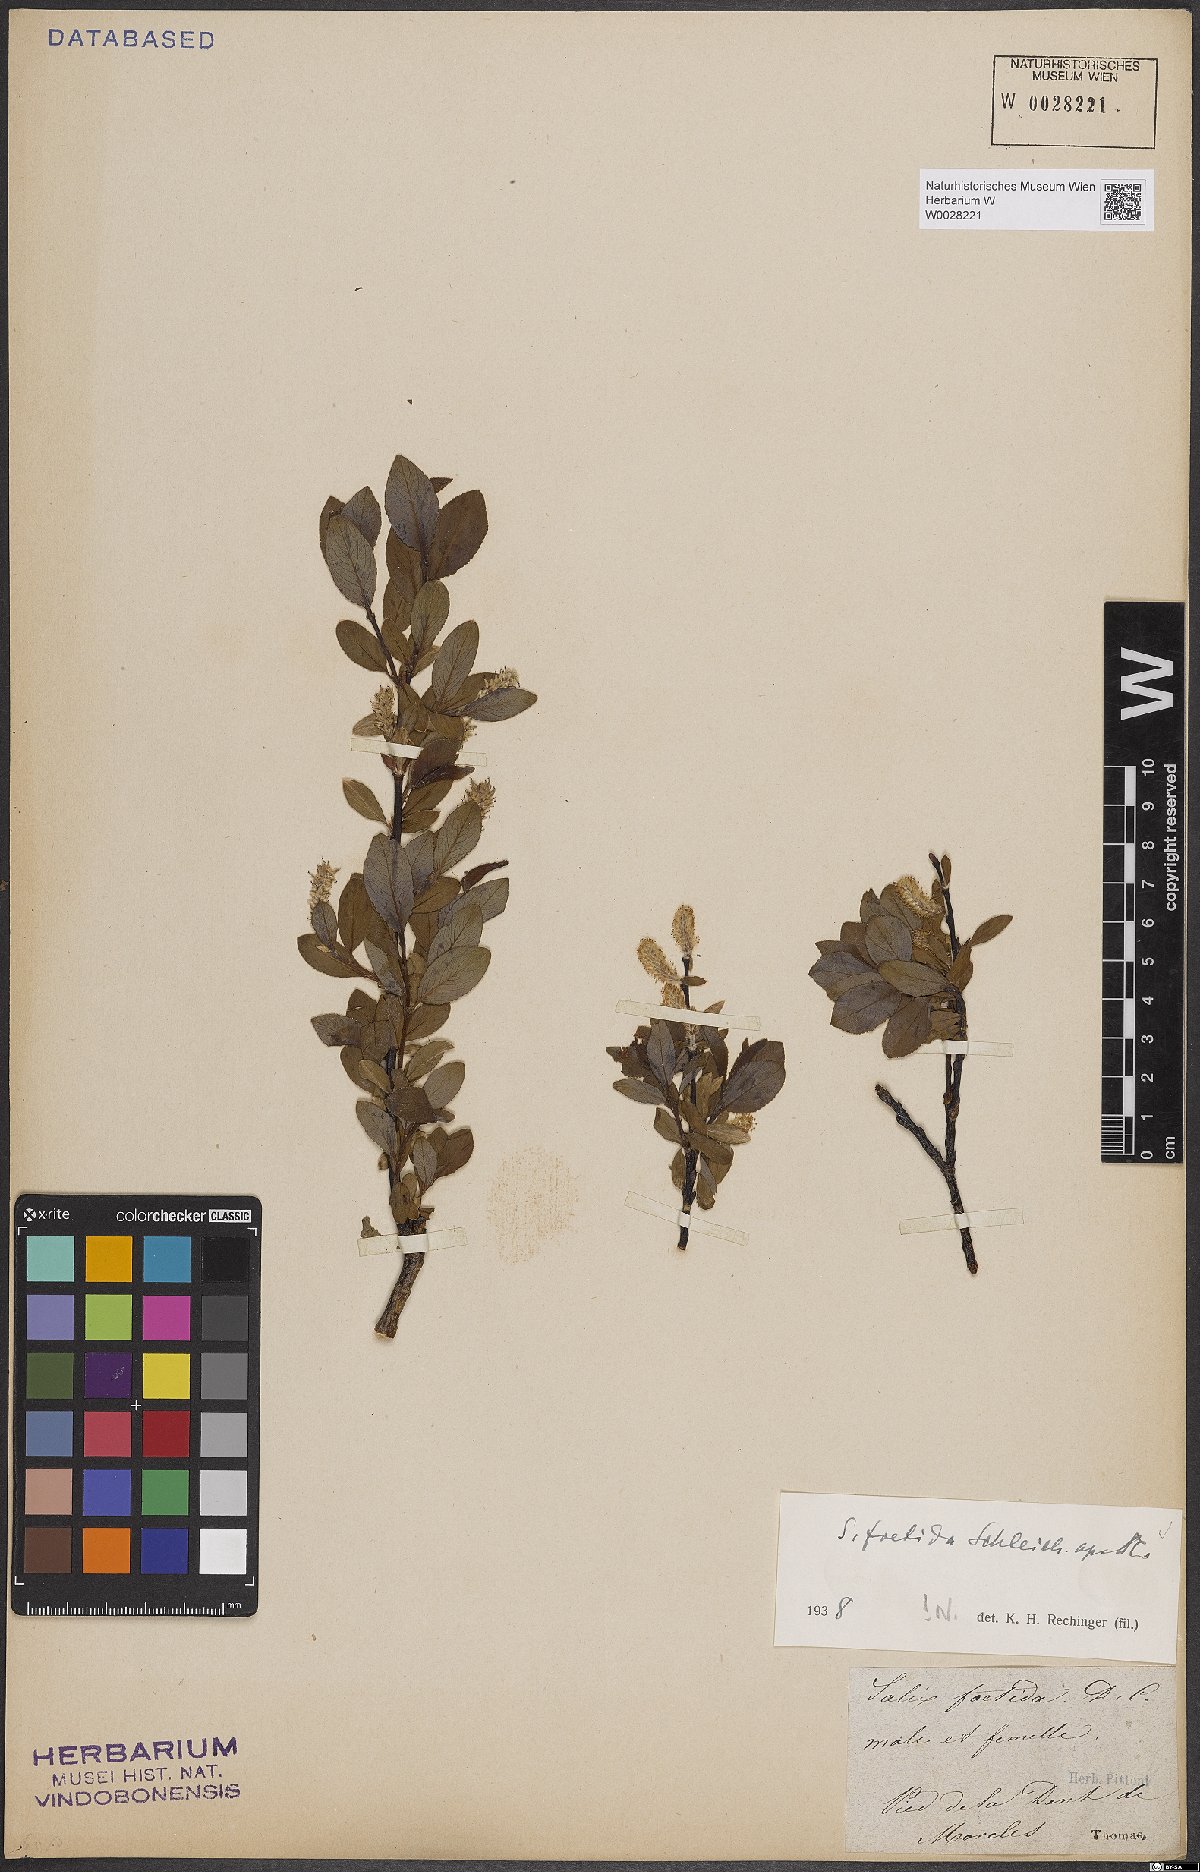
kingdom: Plantae
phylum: Tracheophyta
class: Magnoliopsida
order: Malpighiales
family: Salicaceae
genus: Salix
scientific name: Salix foetida
